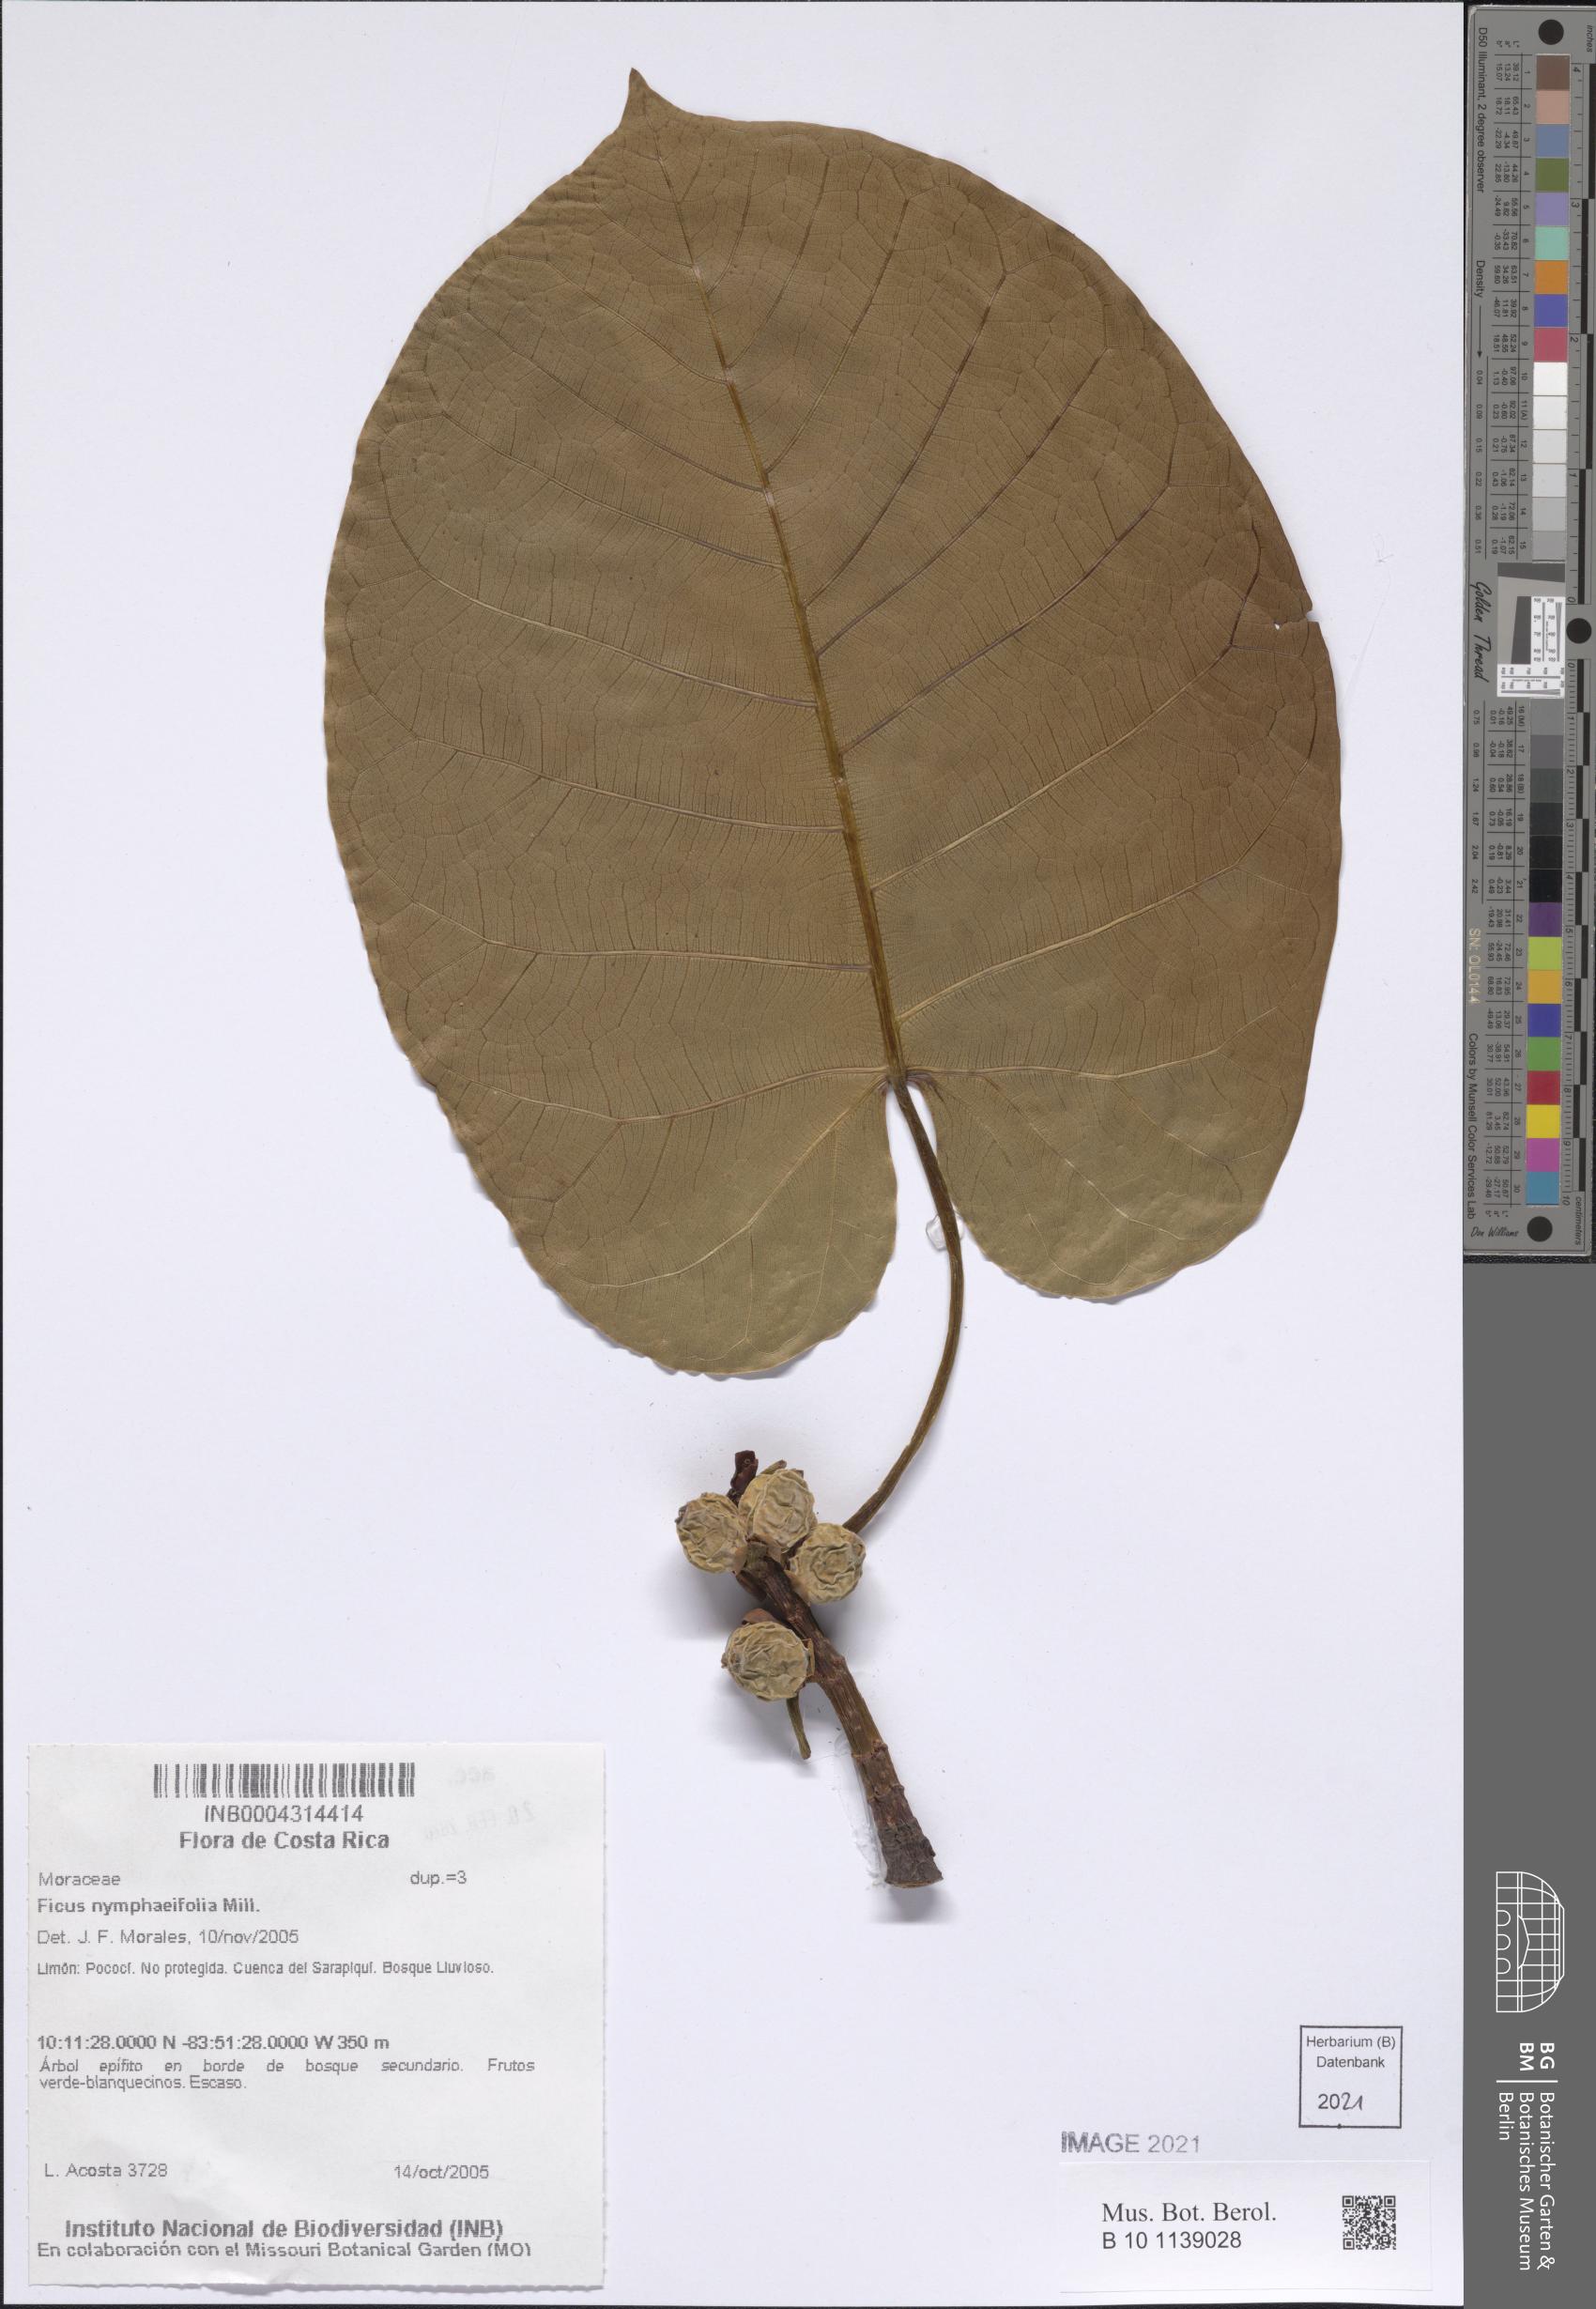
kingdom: Plantae
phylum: Tracheophyta
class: Magnoliopsida
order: Rosales
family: Moraceae
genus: Ficus
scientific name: Ficus nymphaeifolia
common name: Fig
